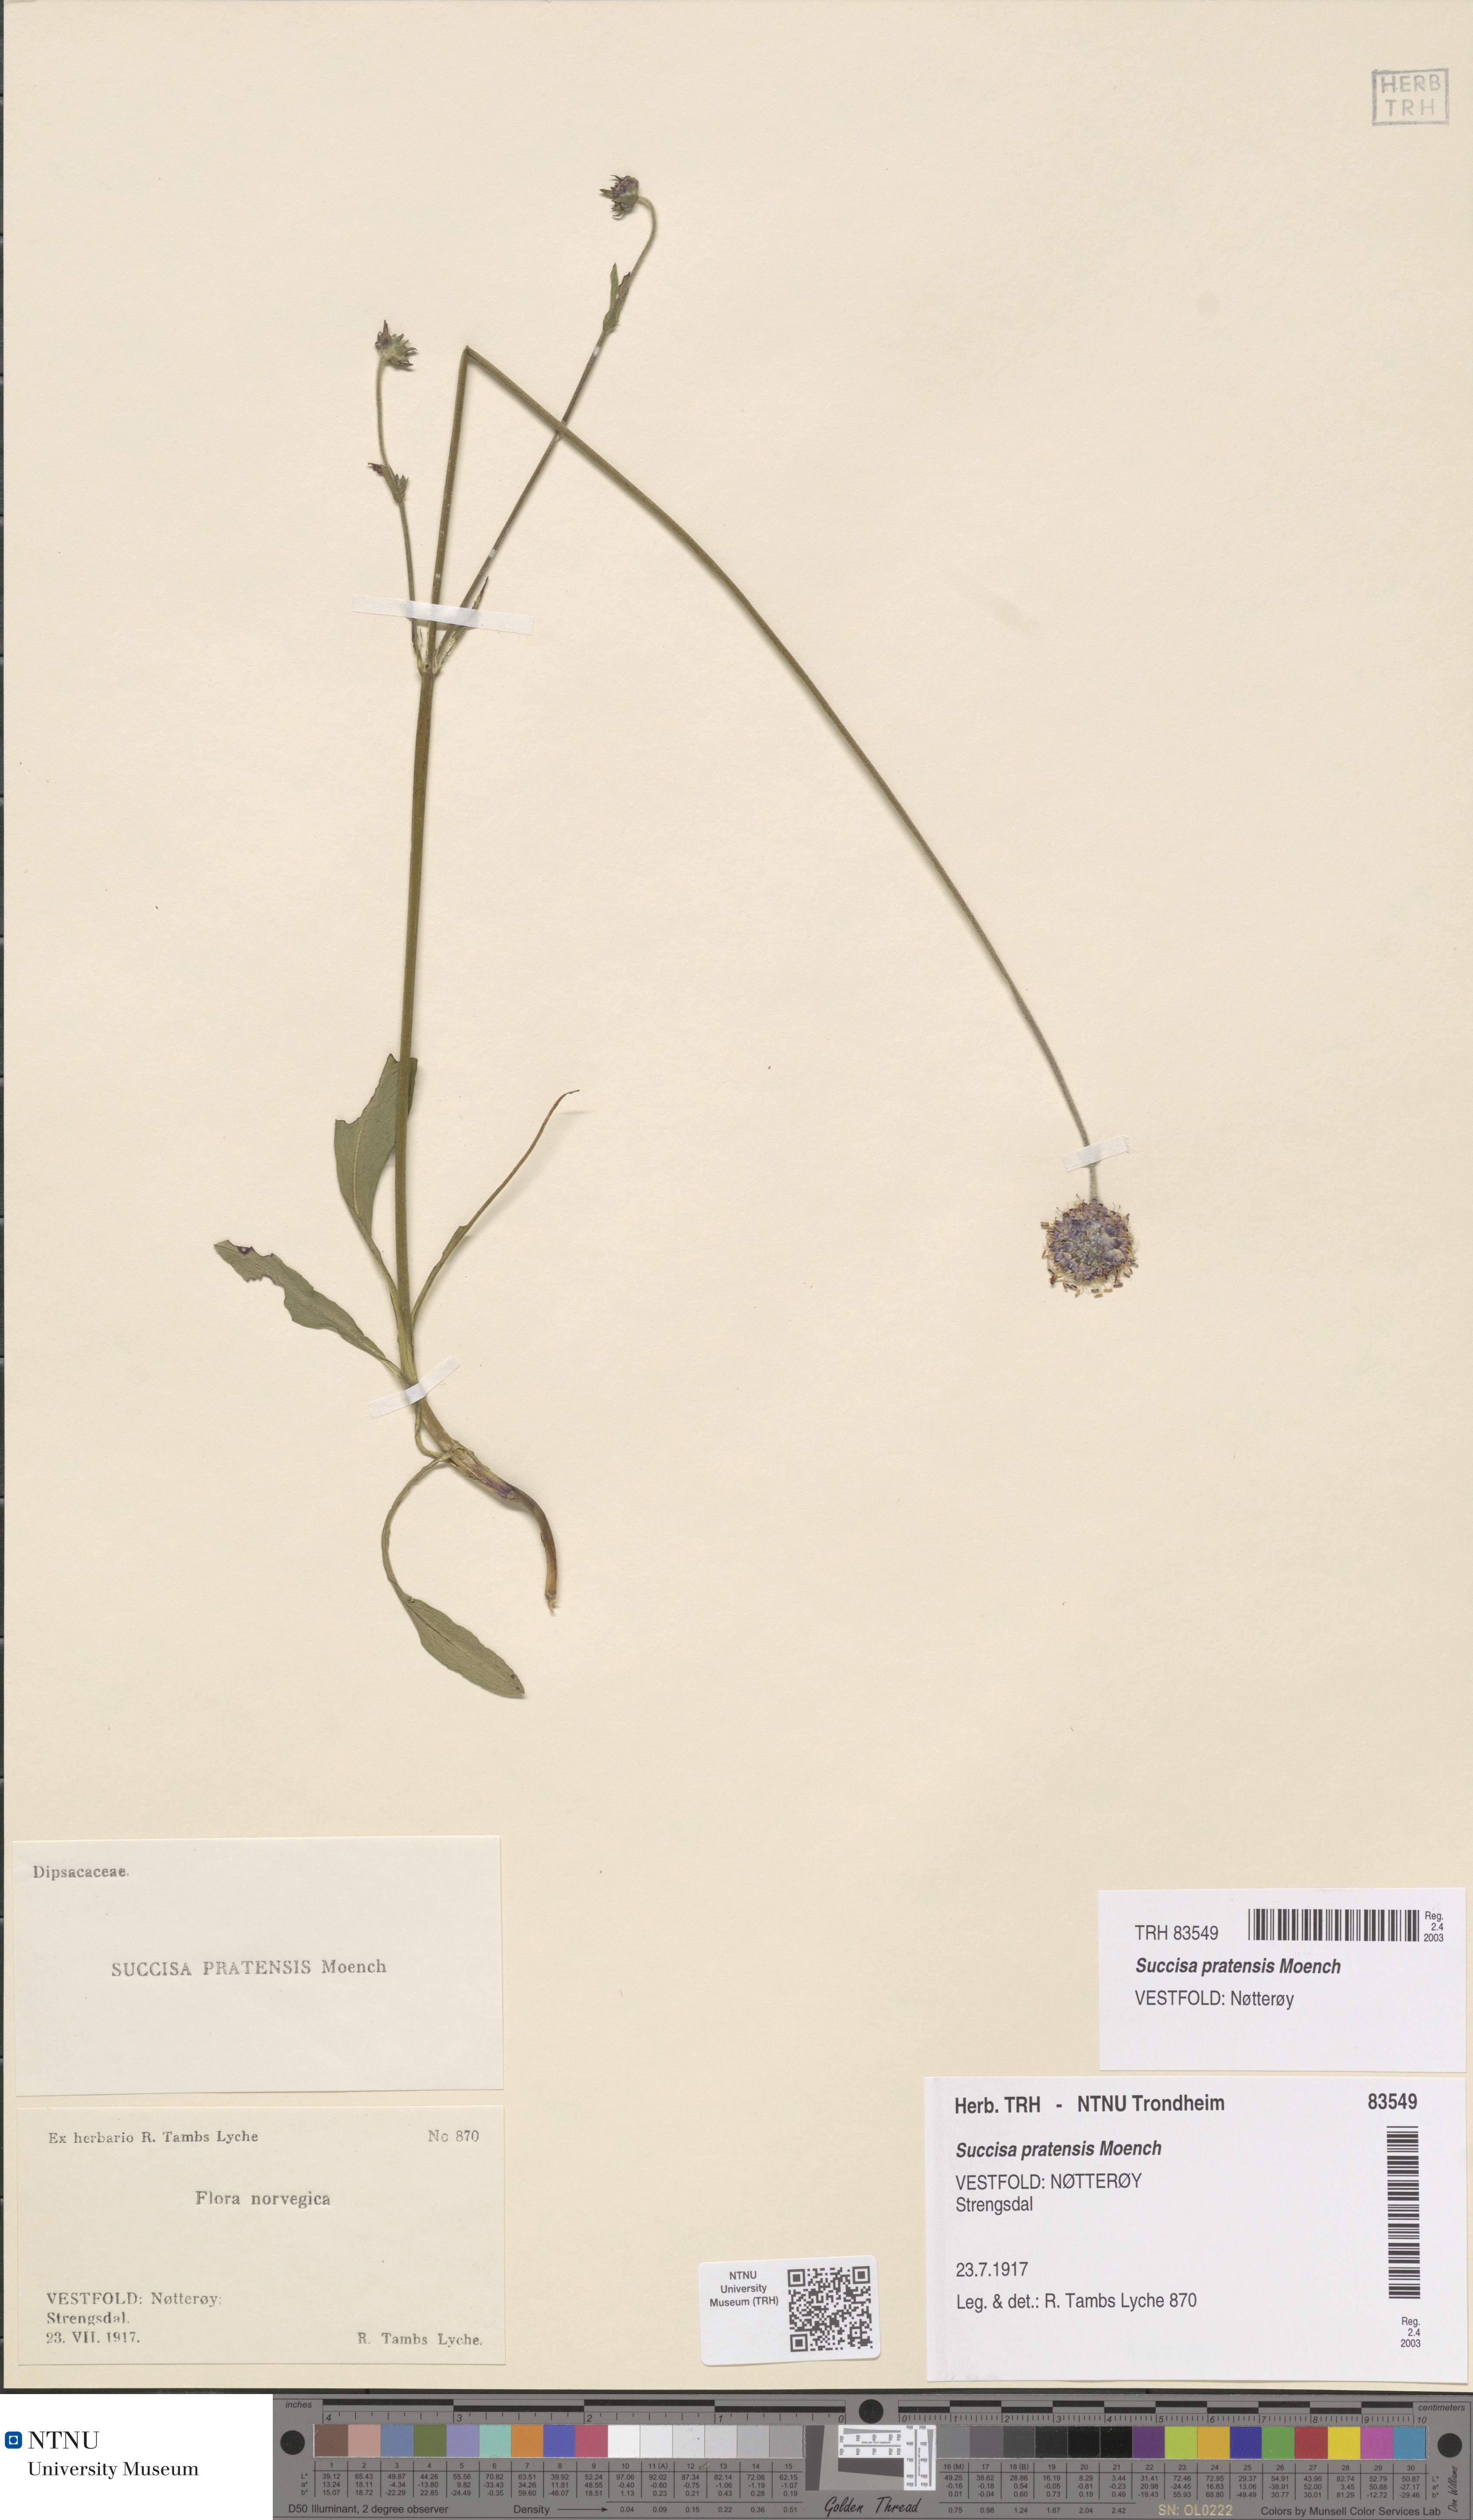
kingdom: Plantae
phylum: Tracheophyta
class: Magnoliopsida
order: Dipsacales
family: Caprifoliaceae
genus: Succisa
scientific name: Succisa pratensis
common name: Devil's-bit
